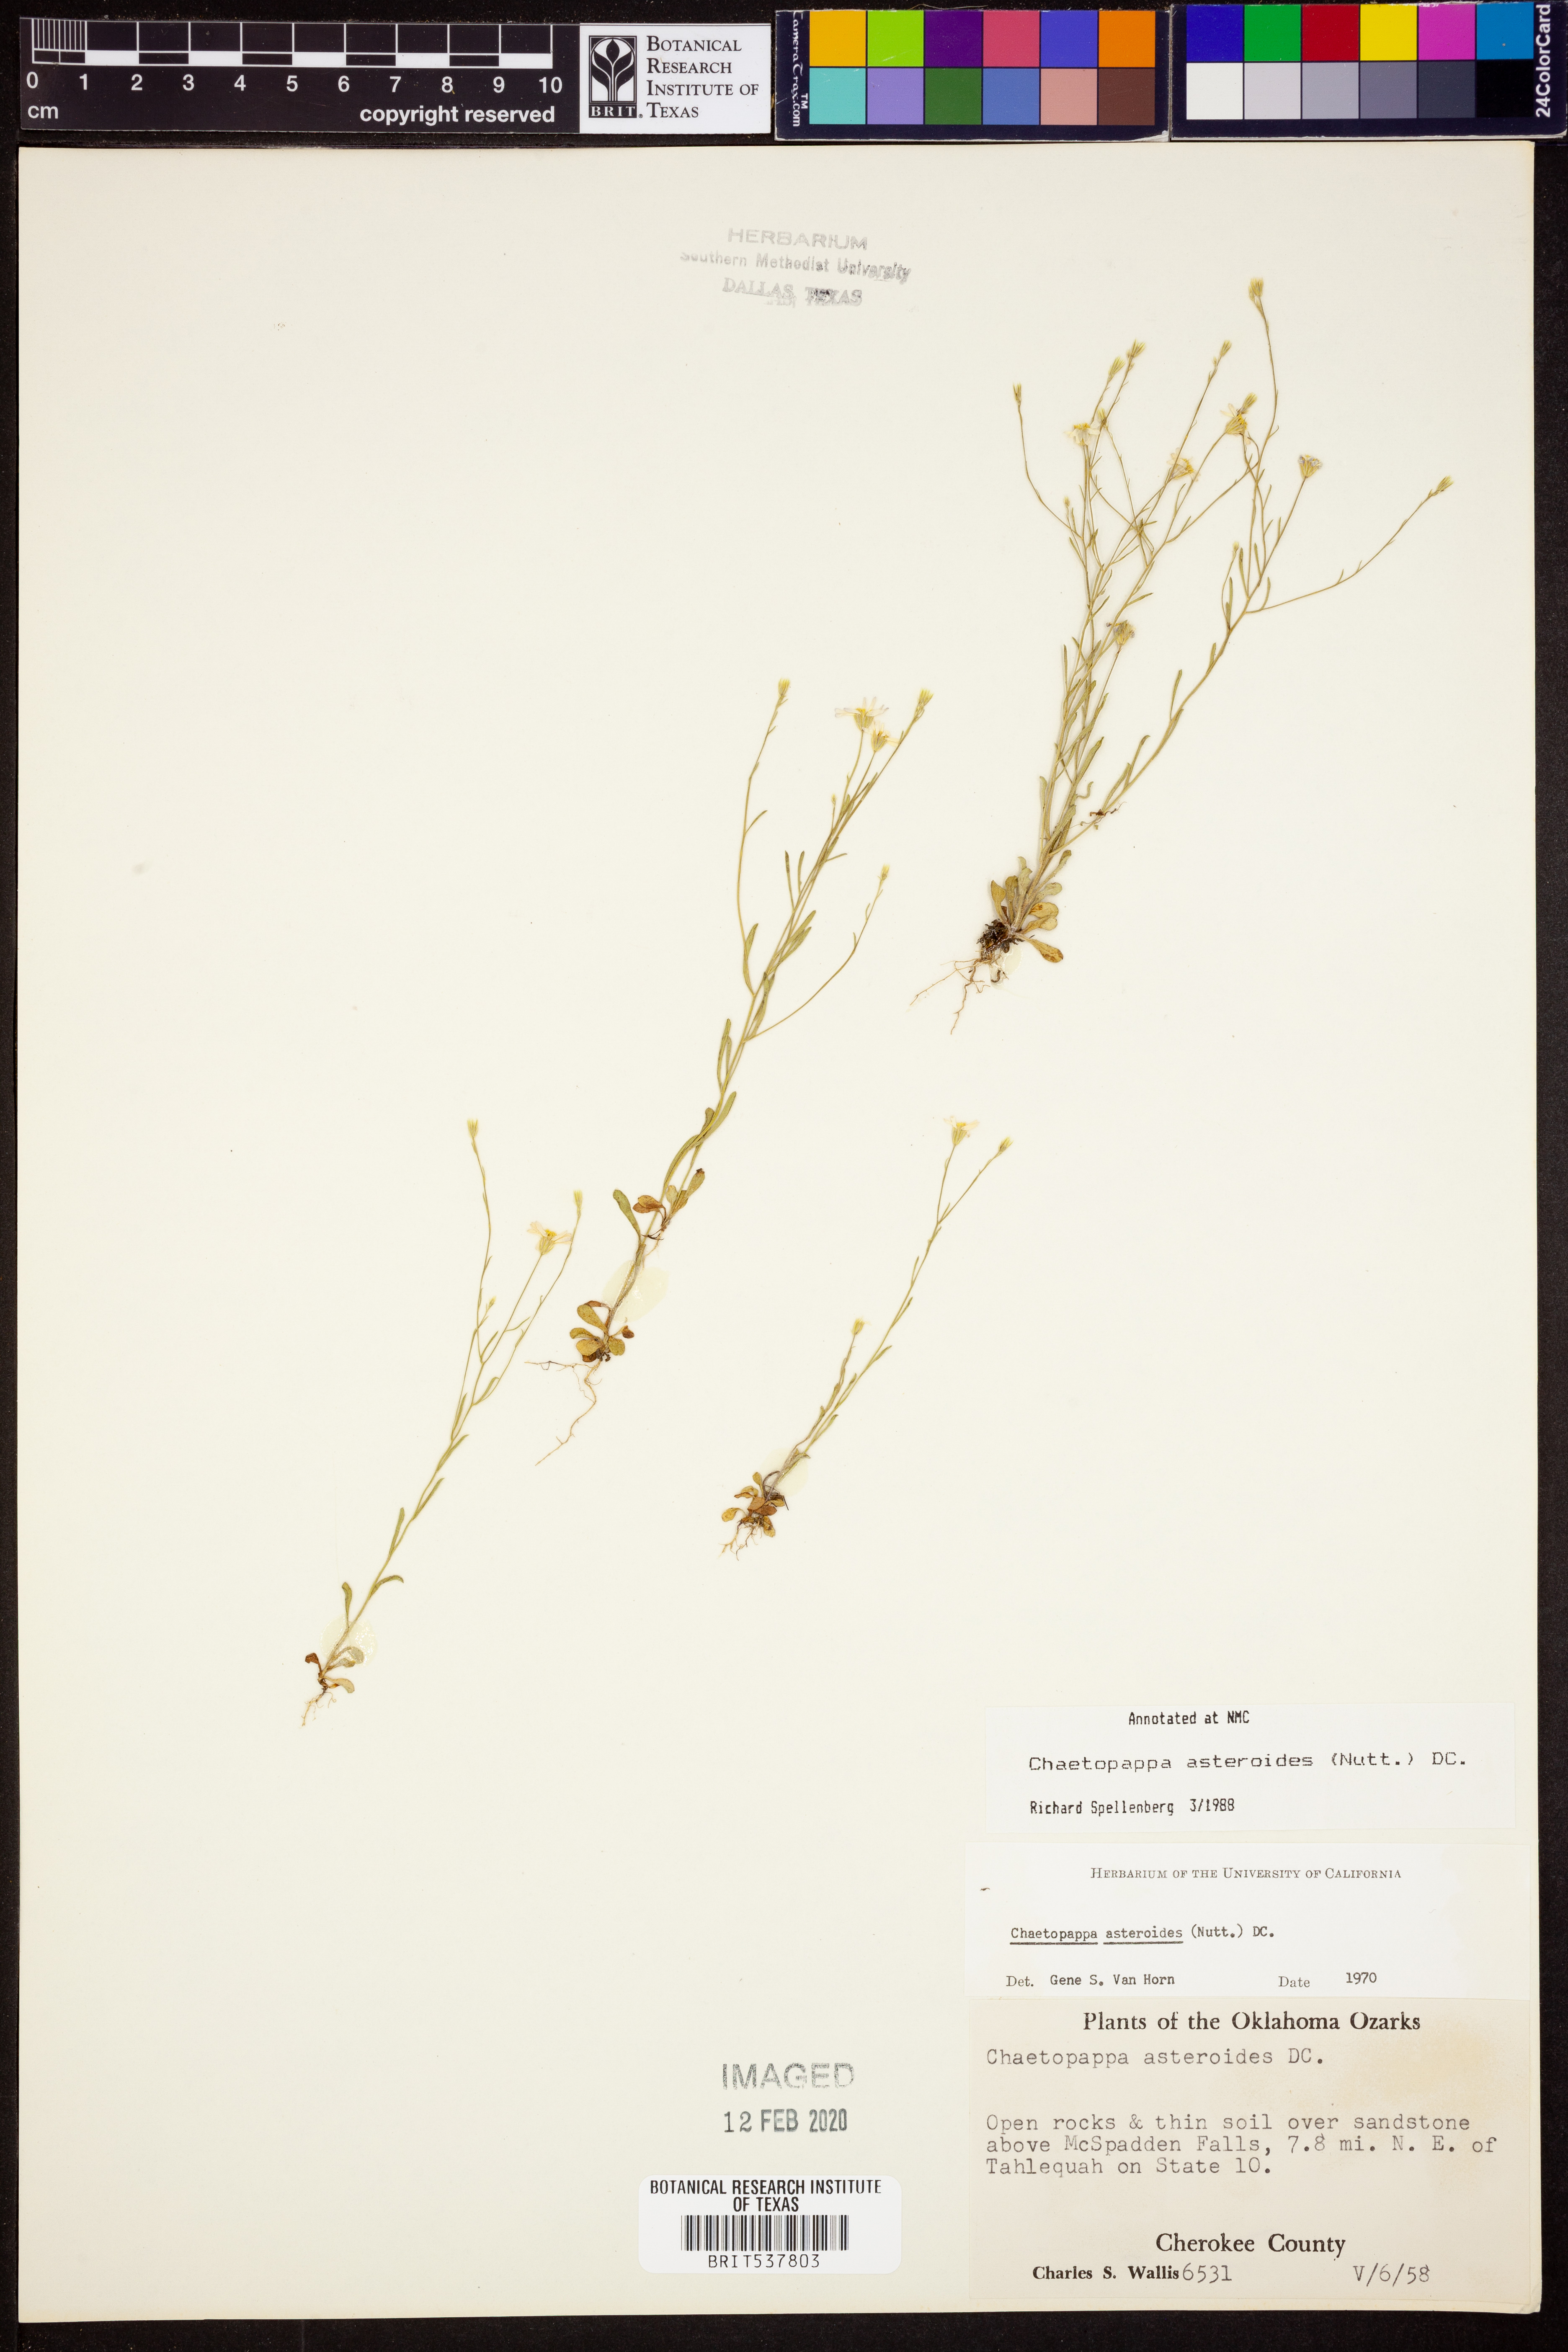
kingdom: Plantae
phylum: Tracheophyta
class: Magnoliopsida
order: Asterales
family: Asteraceae
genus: Chaetopappa
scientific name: Chaetopappa asteroides
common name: Tiny lazy daisy
